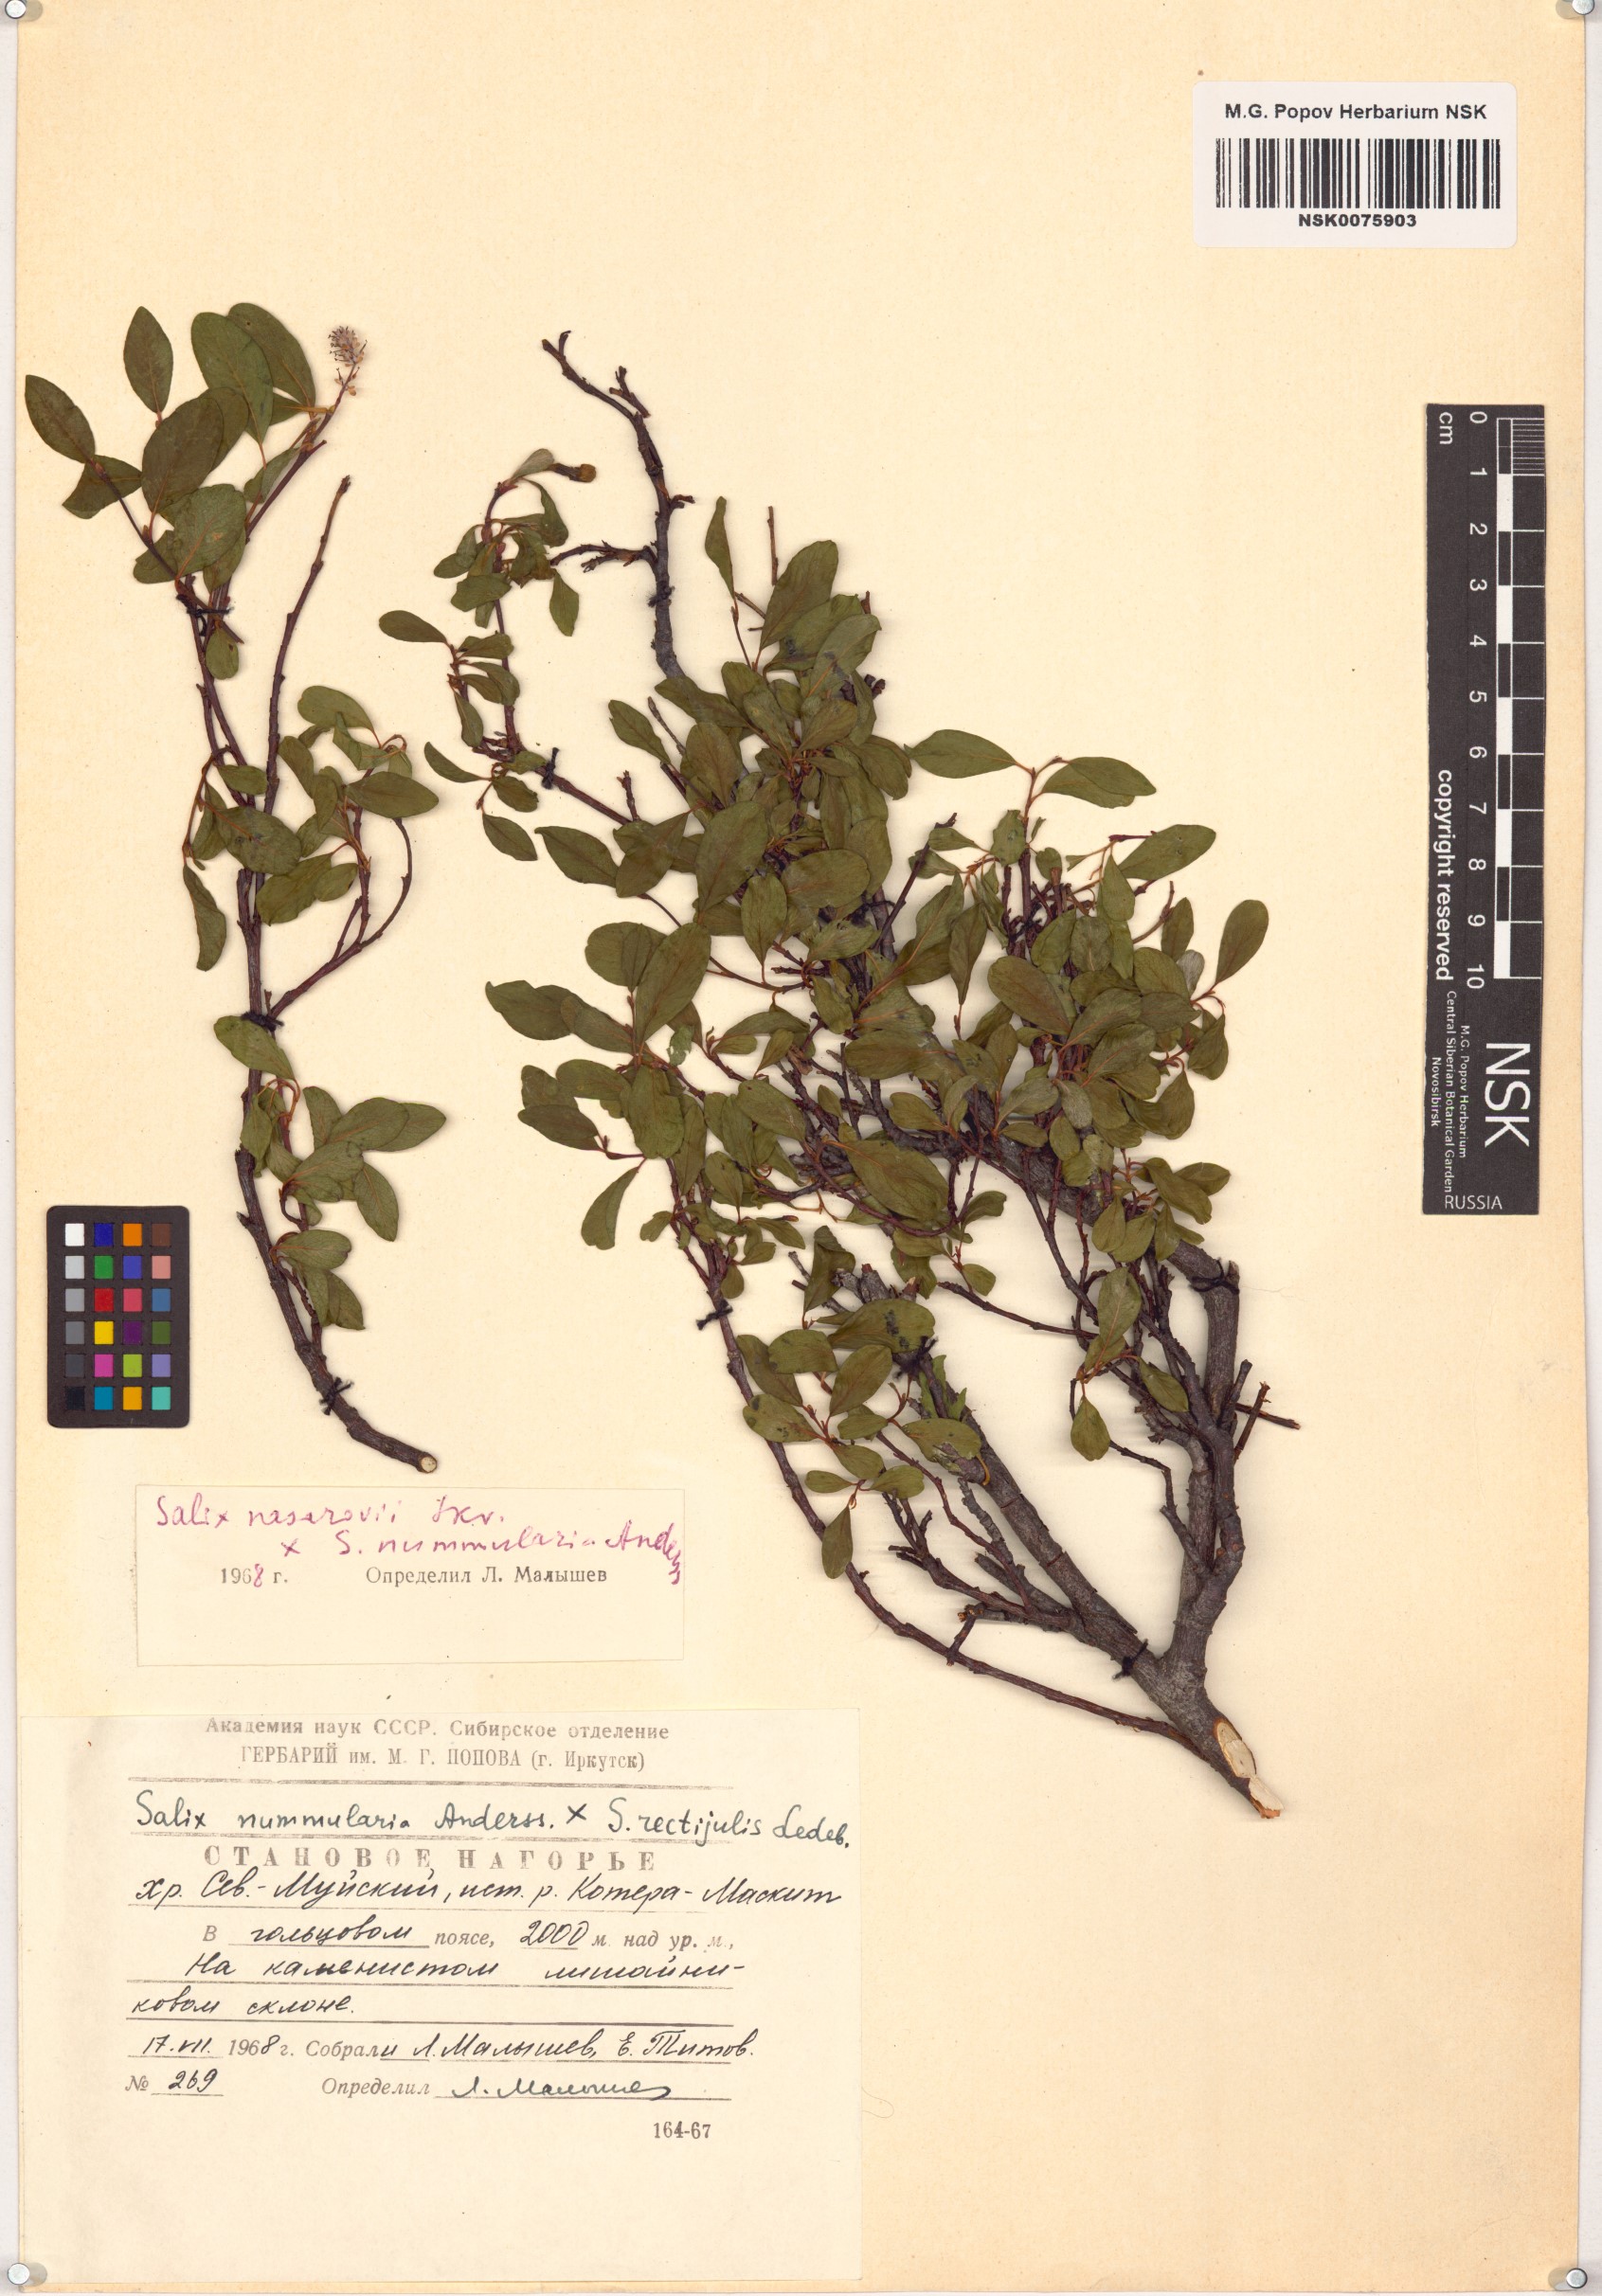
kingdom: Plantae
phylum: Tracheophyta
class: Magnoliopsida
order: Malpighiales
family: Salicaceae
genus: Salix
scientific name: Salix
